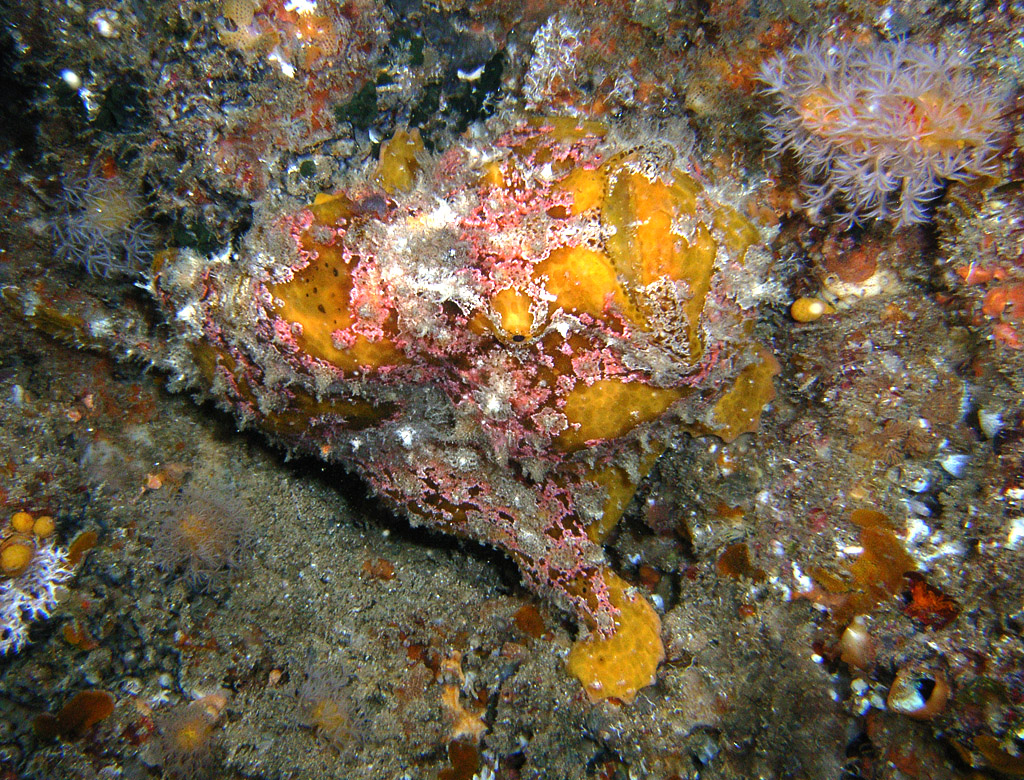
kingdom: Animalia
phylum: Chordata
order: Lophiiformes
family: Antennariidae
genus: Antennarius
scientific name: Antennarius
